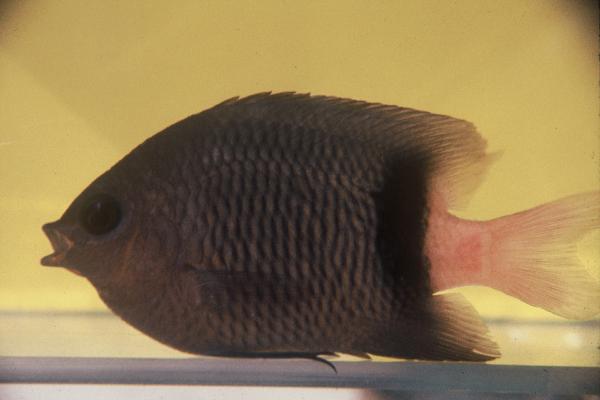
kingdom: Animalia
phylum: Chordata
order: Perciformes
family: Pomacentridae
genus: Plectroglyphidodon
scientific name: Plectroglyphidodon dickii
